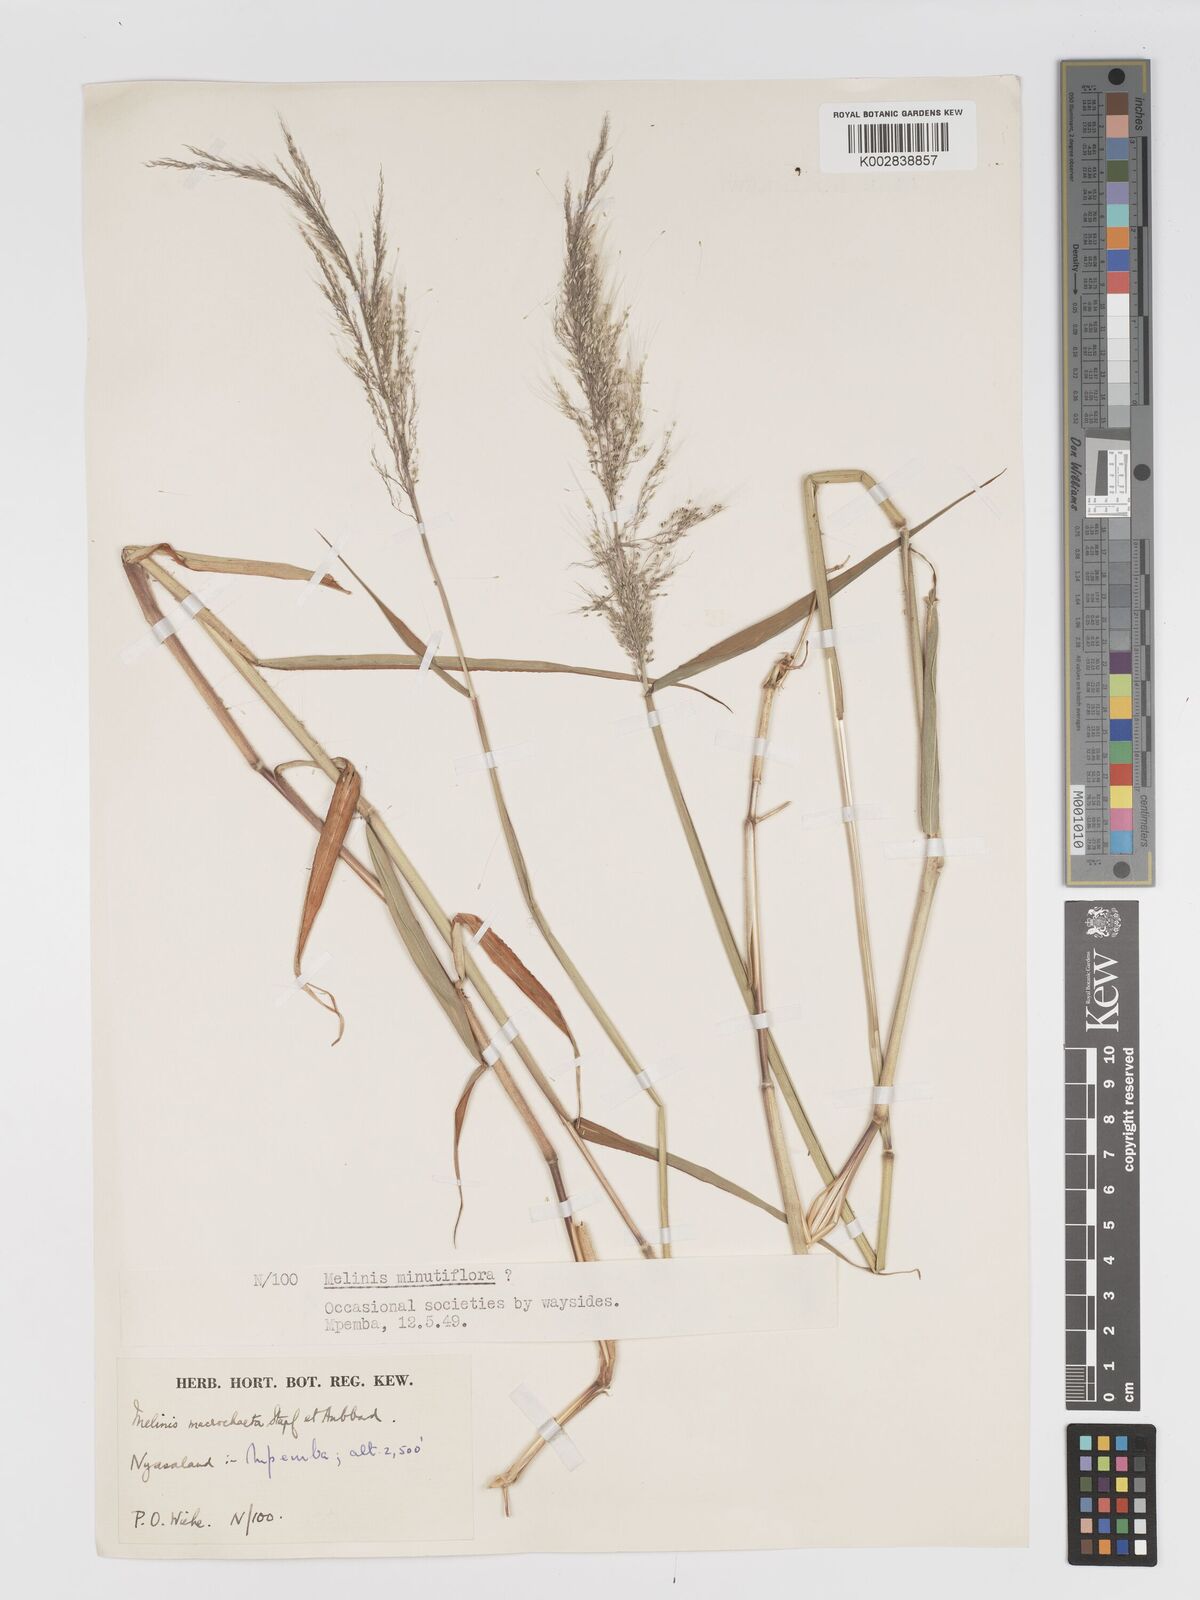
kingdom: Plantae
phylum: Tracheophyta
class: Liliopsida
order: Poales
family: Poaceae
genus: Melinis
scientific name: Melinis macrochaeta
